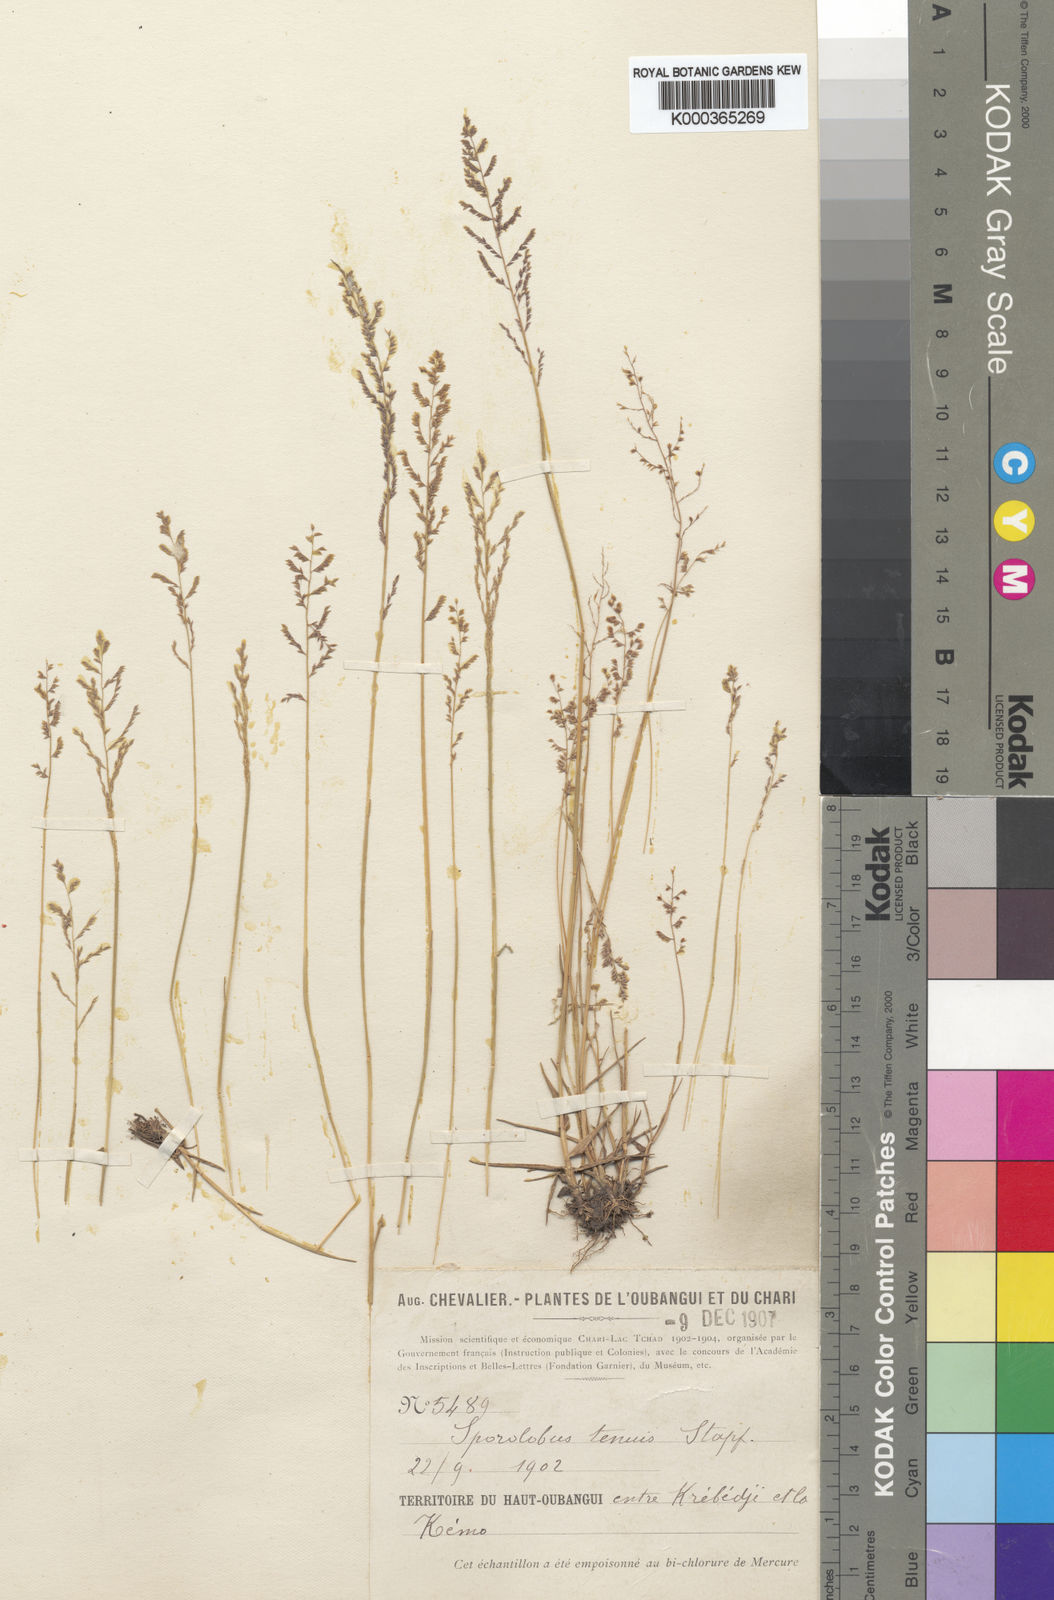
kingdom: Plantae
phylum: Tracheophyta
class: Liliopsida
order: Poales
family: Poaceae
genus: Sporobolus
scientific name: Sporobolus infirmus
